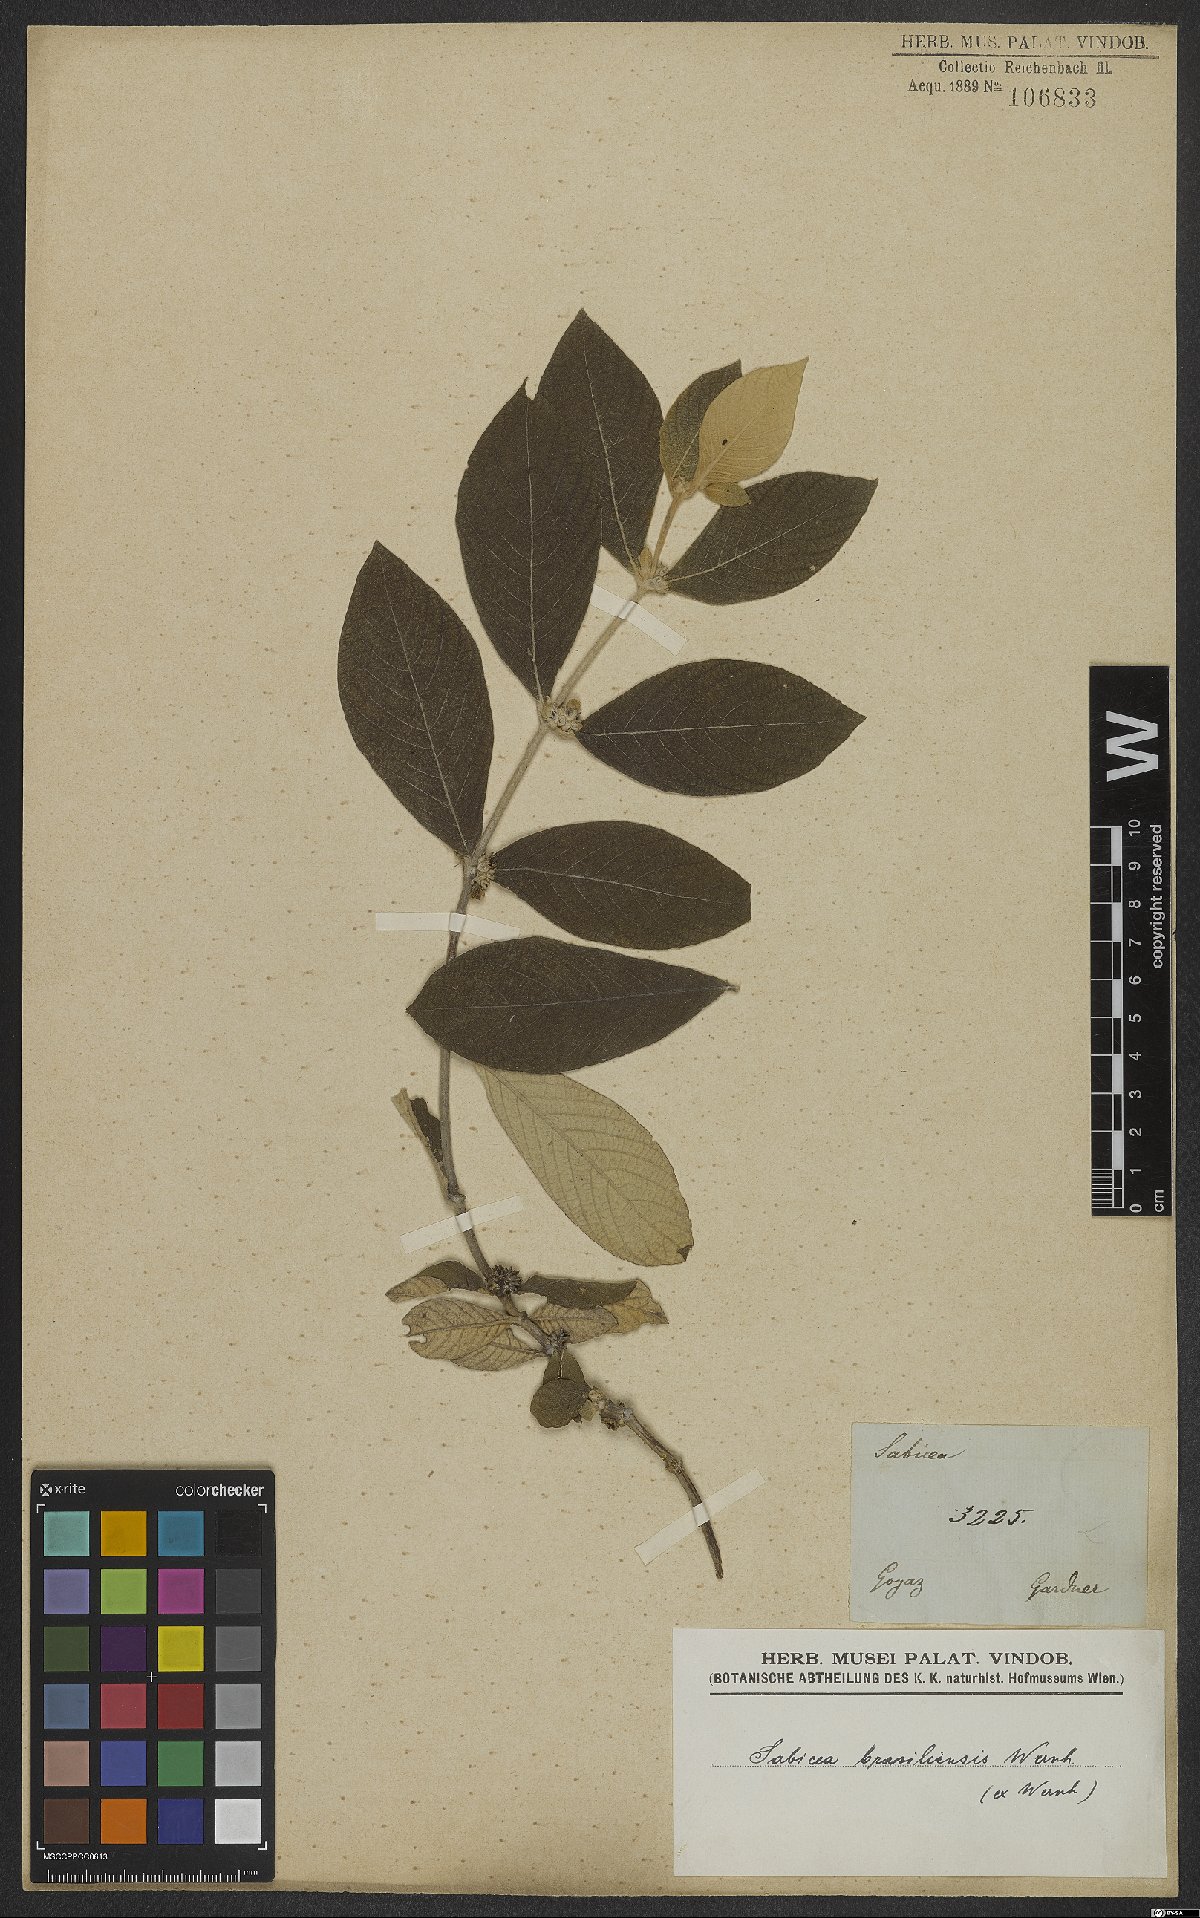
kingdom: Plantae
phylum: Tracheophyta
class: Magnoliopsida
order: Gentianales
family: Rubiaceae
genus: Sabicea
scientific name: Sabicea brasiliensis
